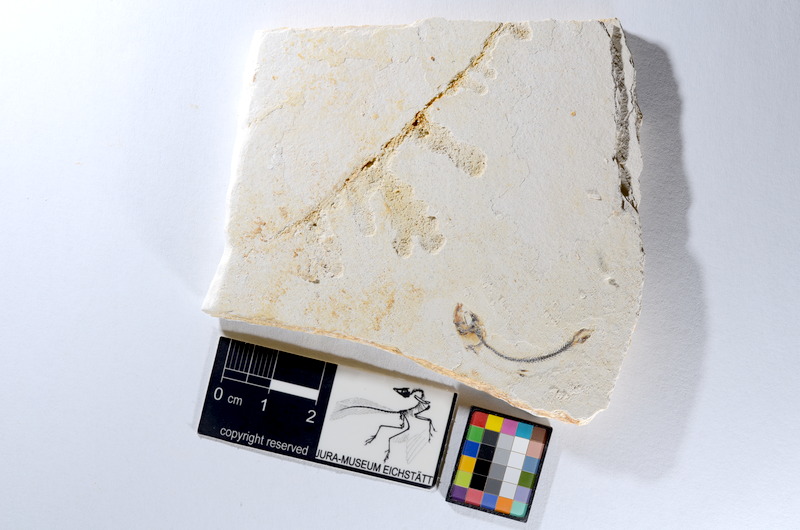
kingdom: Animalia
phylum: Chordata
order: Salmoniformes
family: Orthogonikleithridae
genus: Orthogonikleithrus
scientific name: Orthogonikleithrus hoelli
